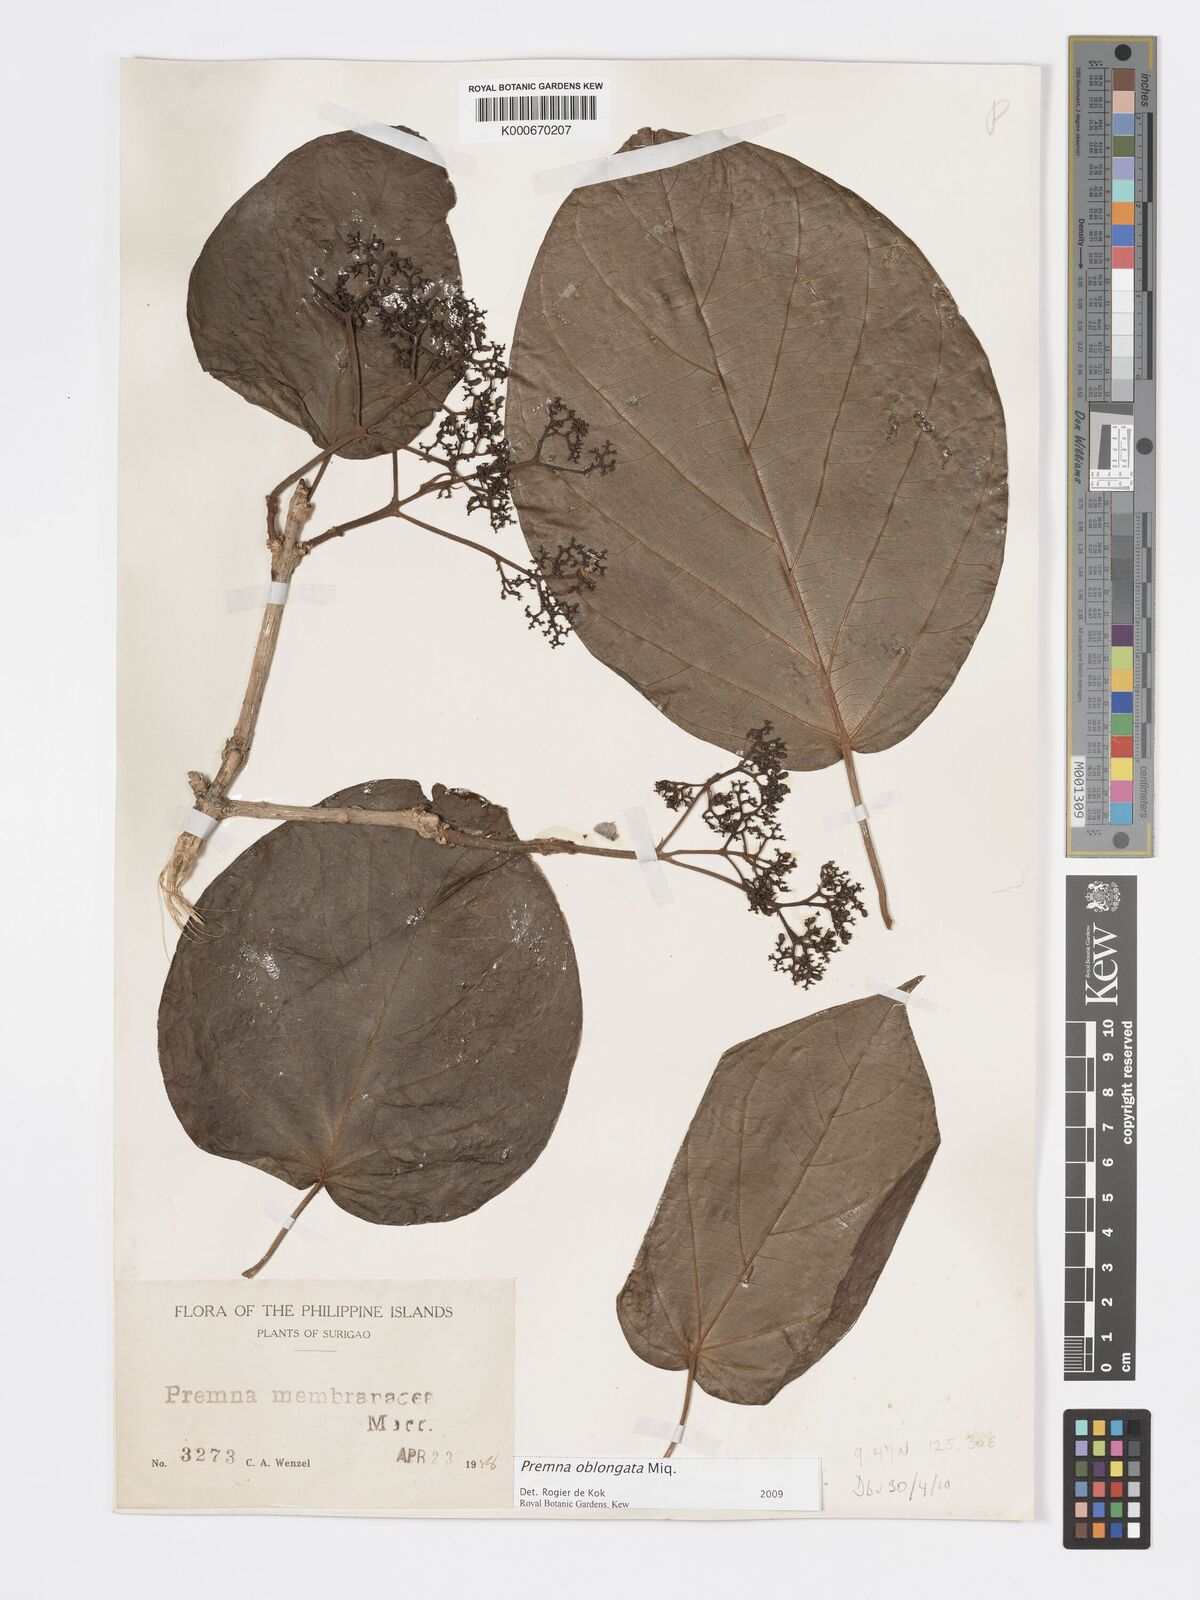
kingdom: Plantae
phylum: Tracheophyta
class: Magnoliopsida
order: Lamiales
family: Lamiaceae
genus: Premna
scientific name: Premna oblongata
